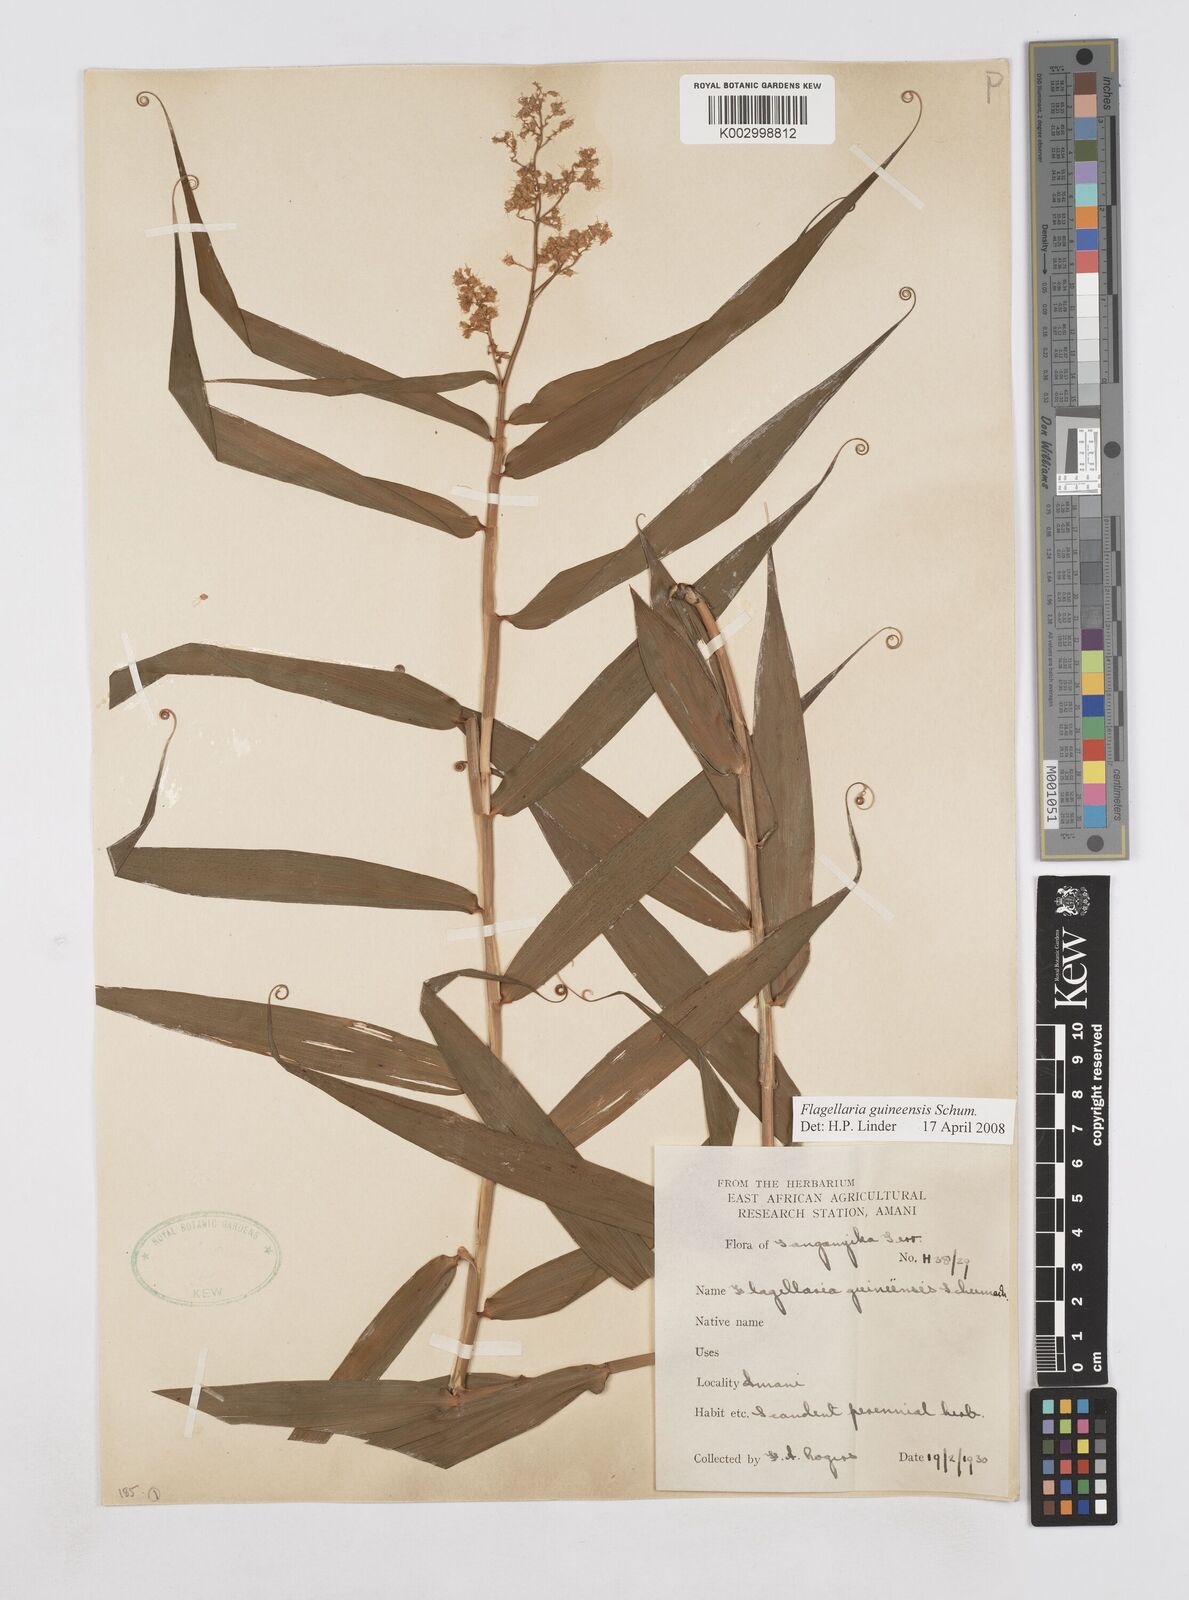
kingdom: Plantae
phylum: Tracheophyta
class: Liliopsida
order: Poales
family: Flagellariaceae
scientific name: Flagellariaceae
